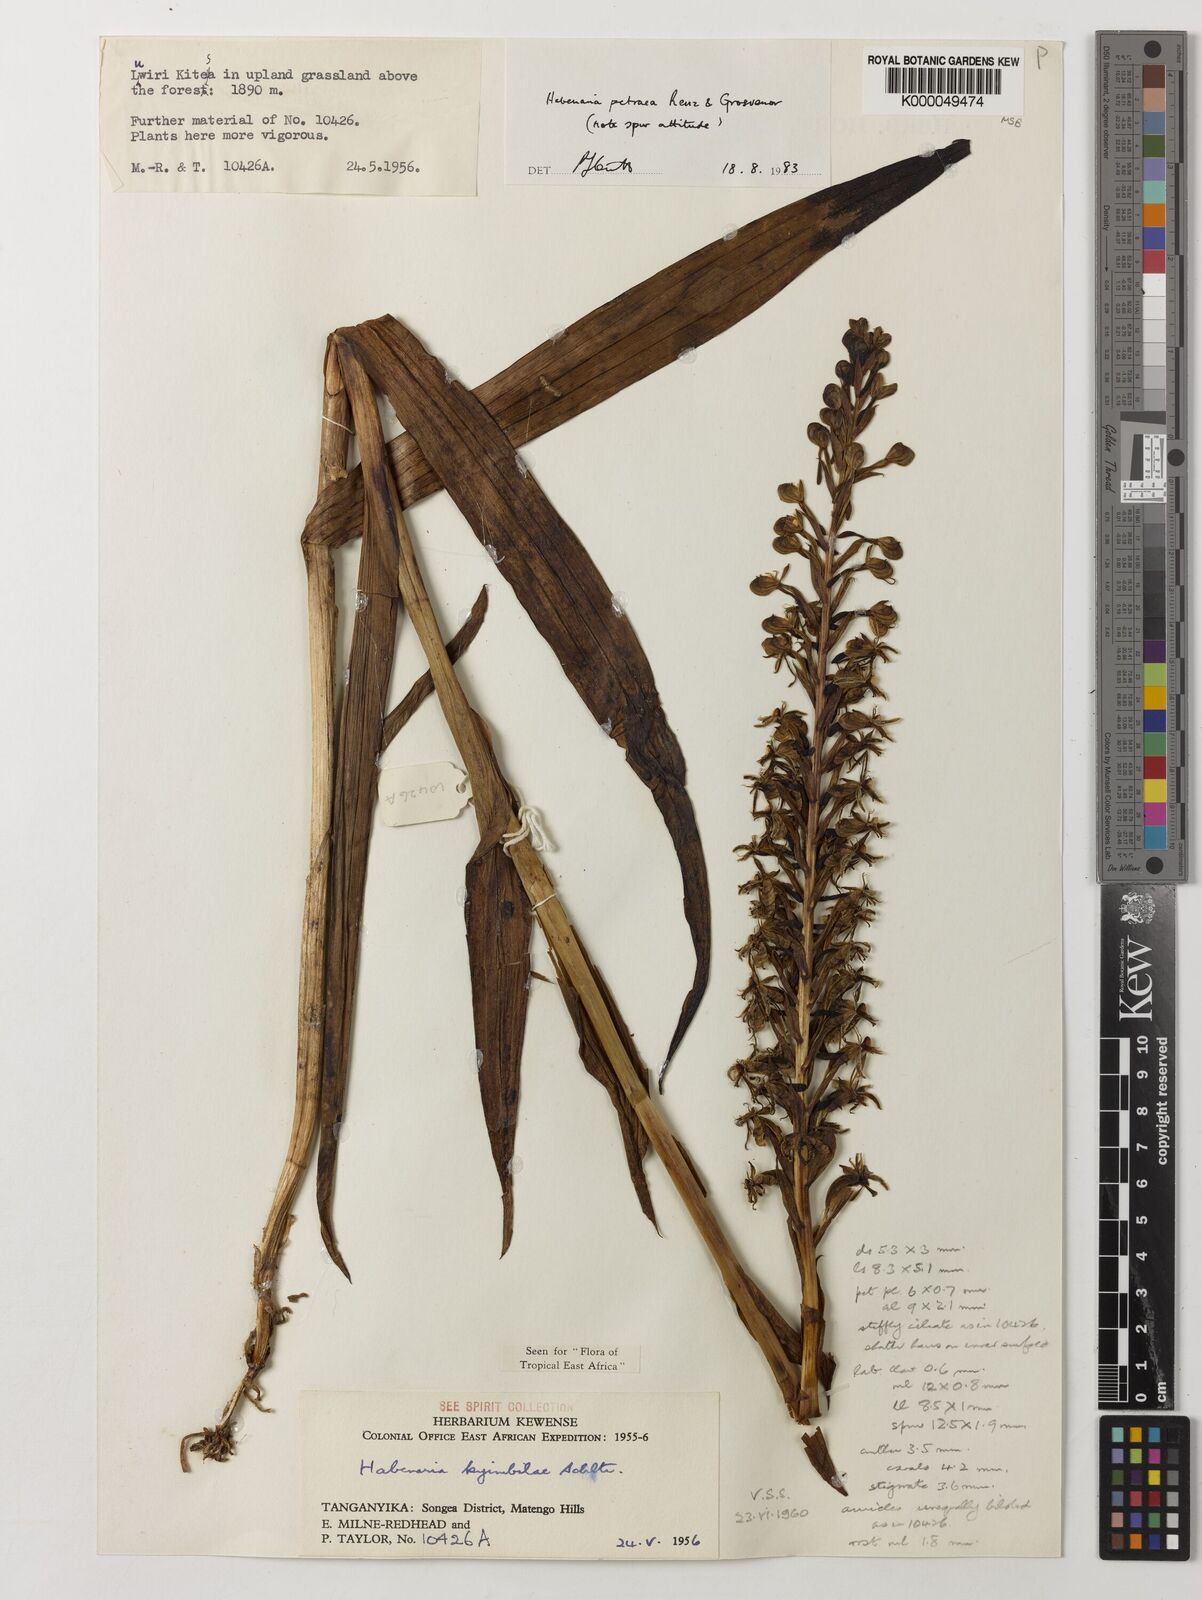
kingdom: Plantae
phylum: Tracheophyta
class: Liliopsida
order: Asparagales
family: Orchidaceae
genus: Habenaria
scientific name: Habenaria petraea
